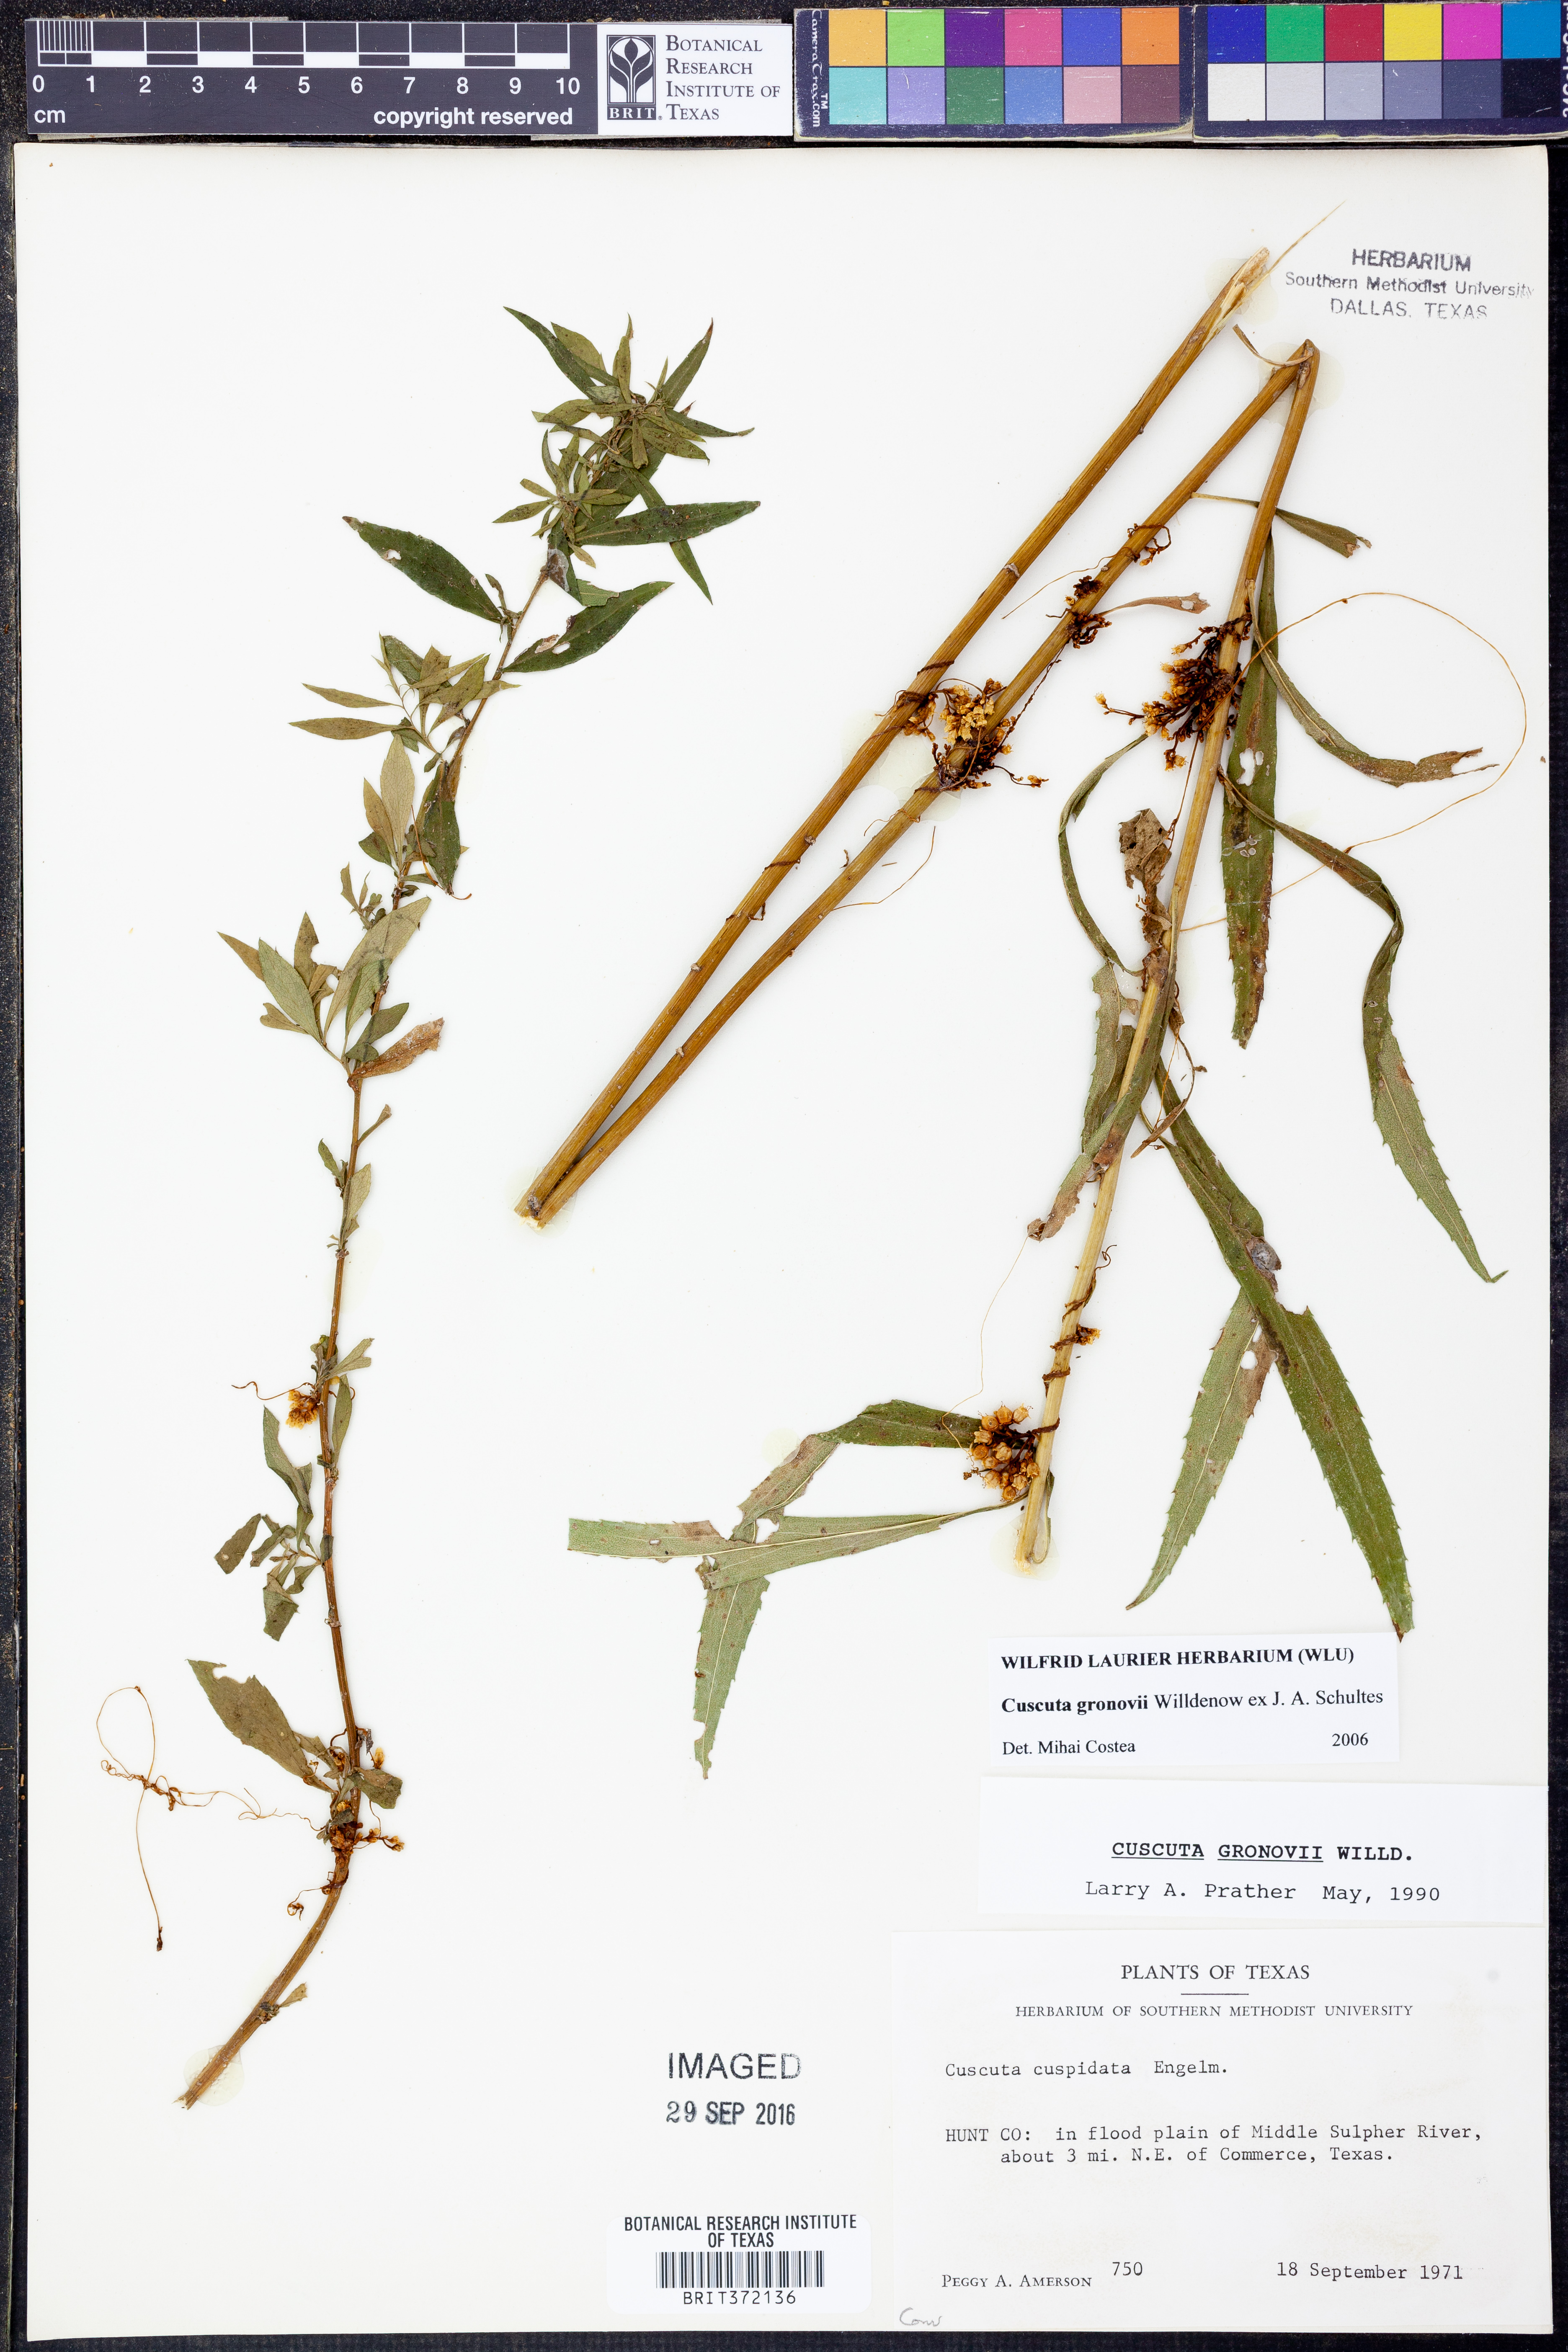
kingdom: Plantae
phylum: Tracheophyta
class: Magnoliopsida
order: Solanales
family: Convolvulaceae
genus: Cuscuta
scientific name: Cuscuta gronovii
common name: Common dodder
